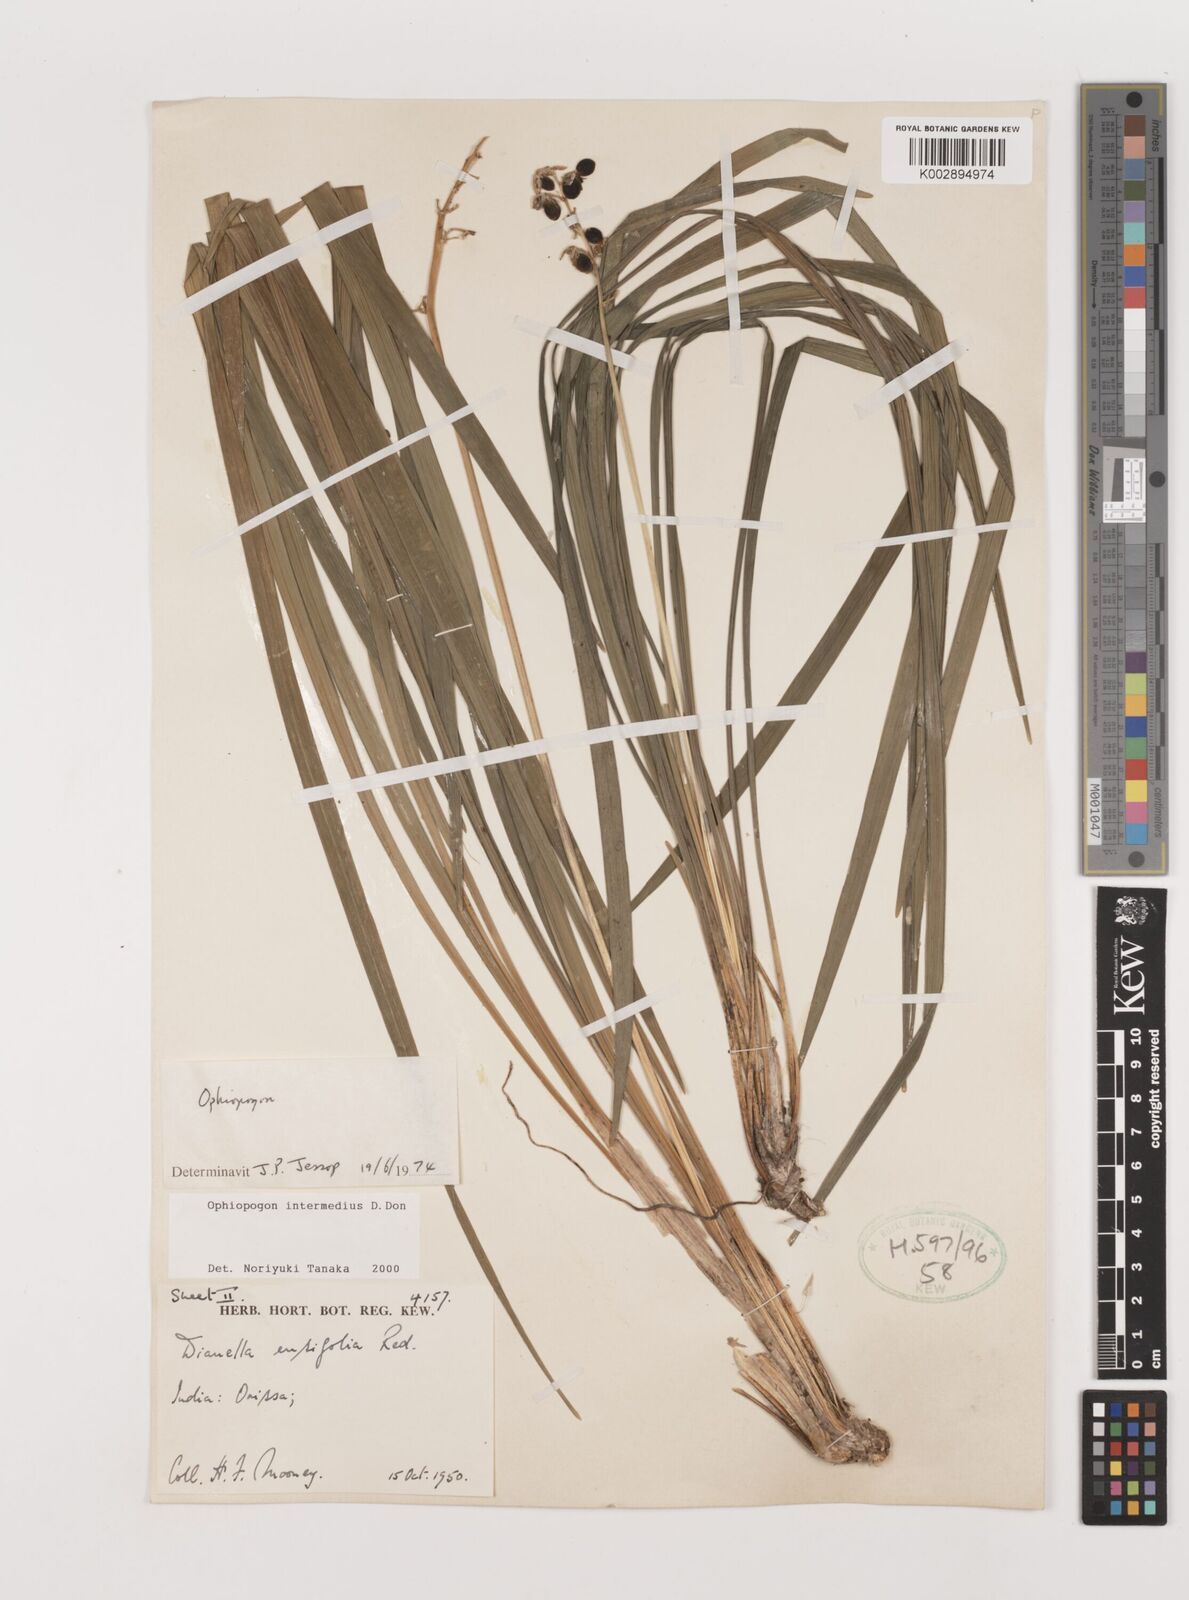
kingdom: Plantae
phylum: Tracheophyta
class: Liliopsida
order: Asparagales
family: Asparagaceae
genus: Ophiopogon
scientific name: Ophiopogon intermedius
